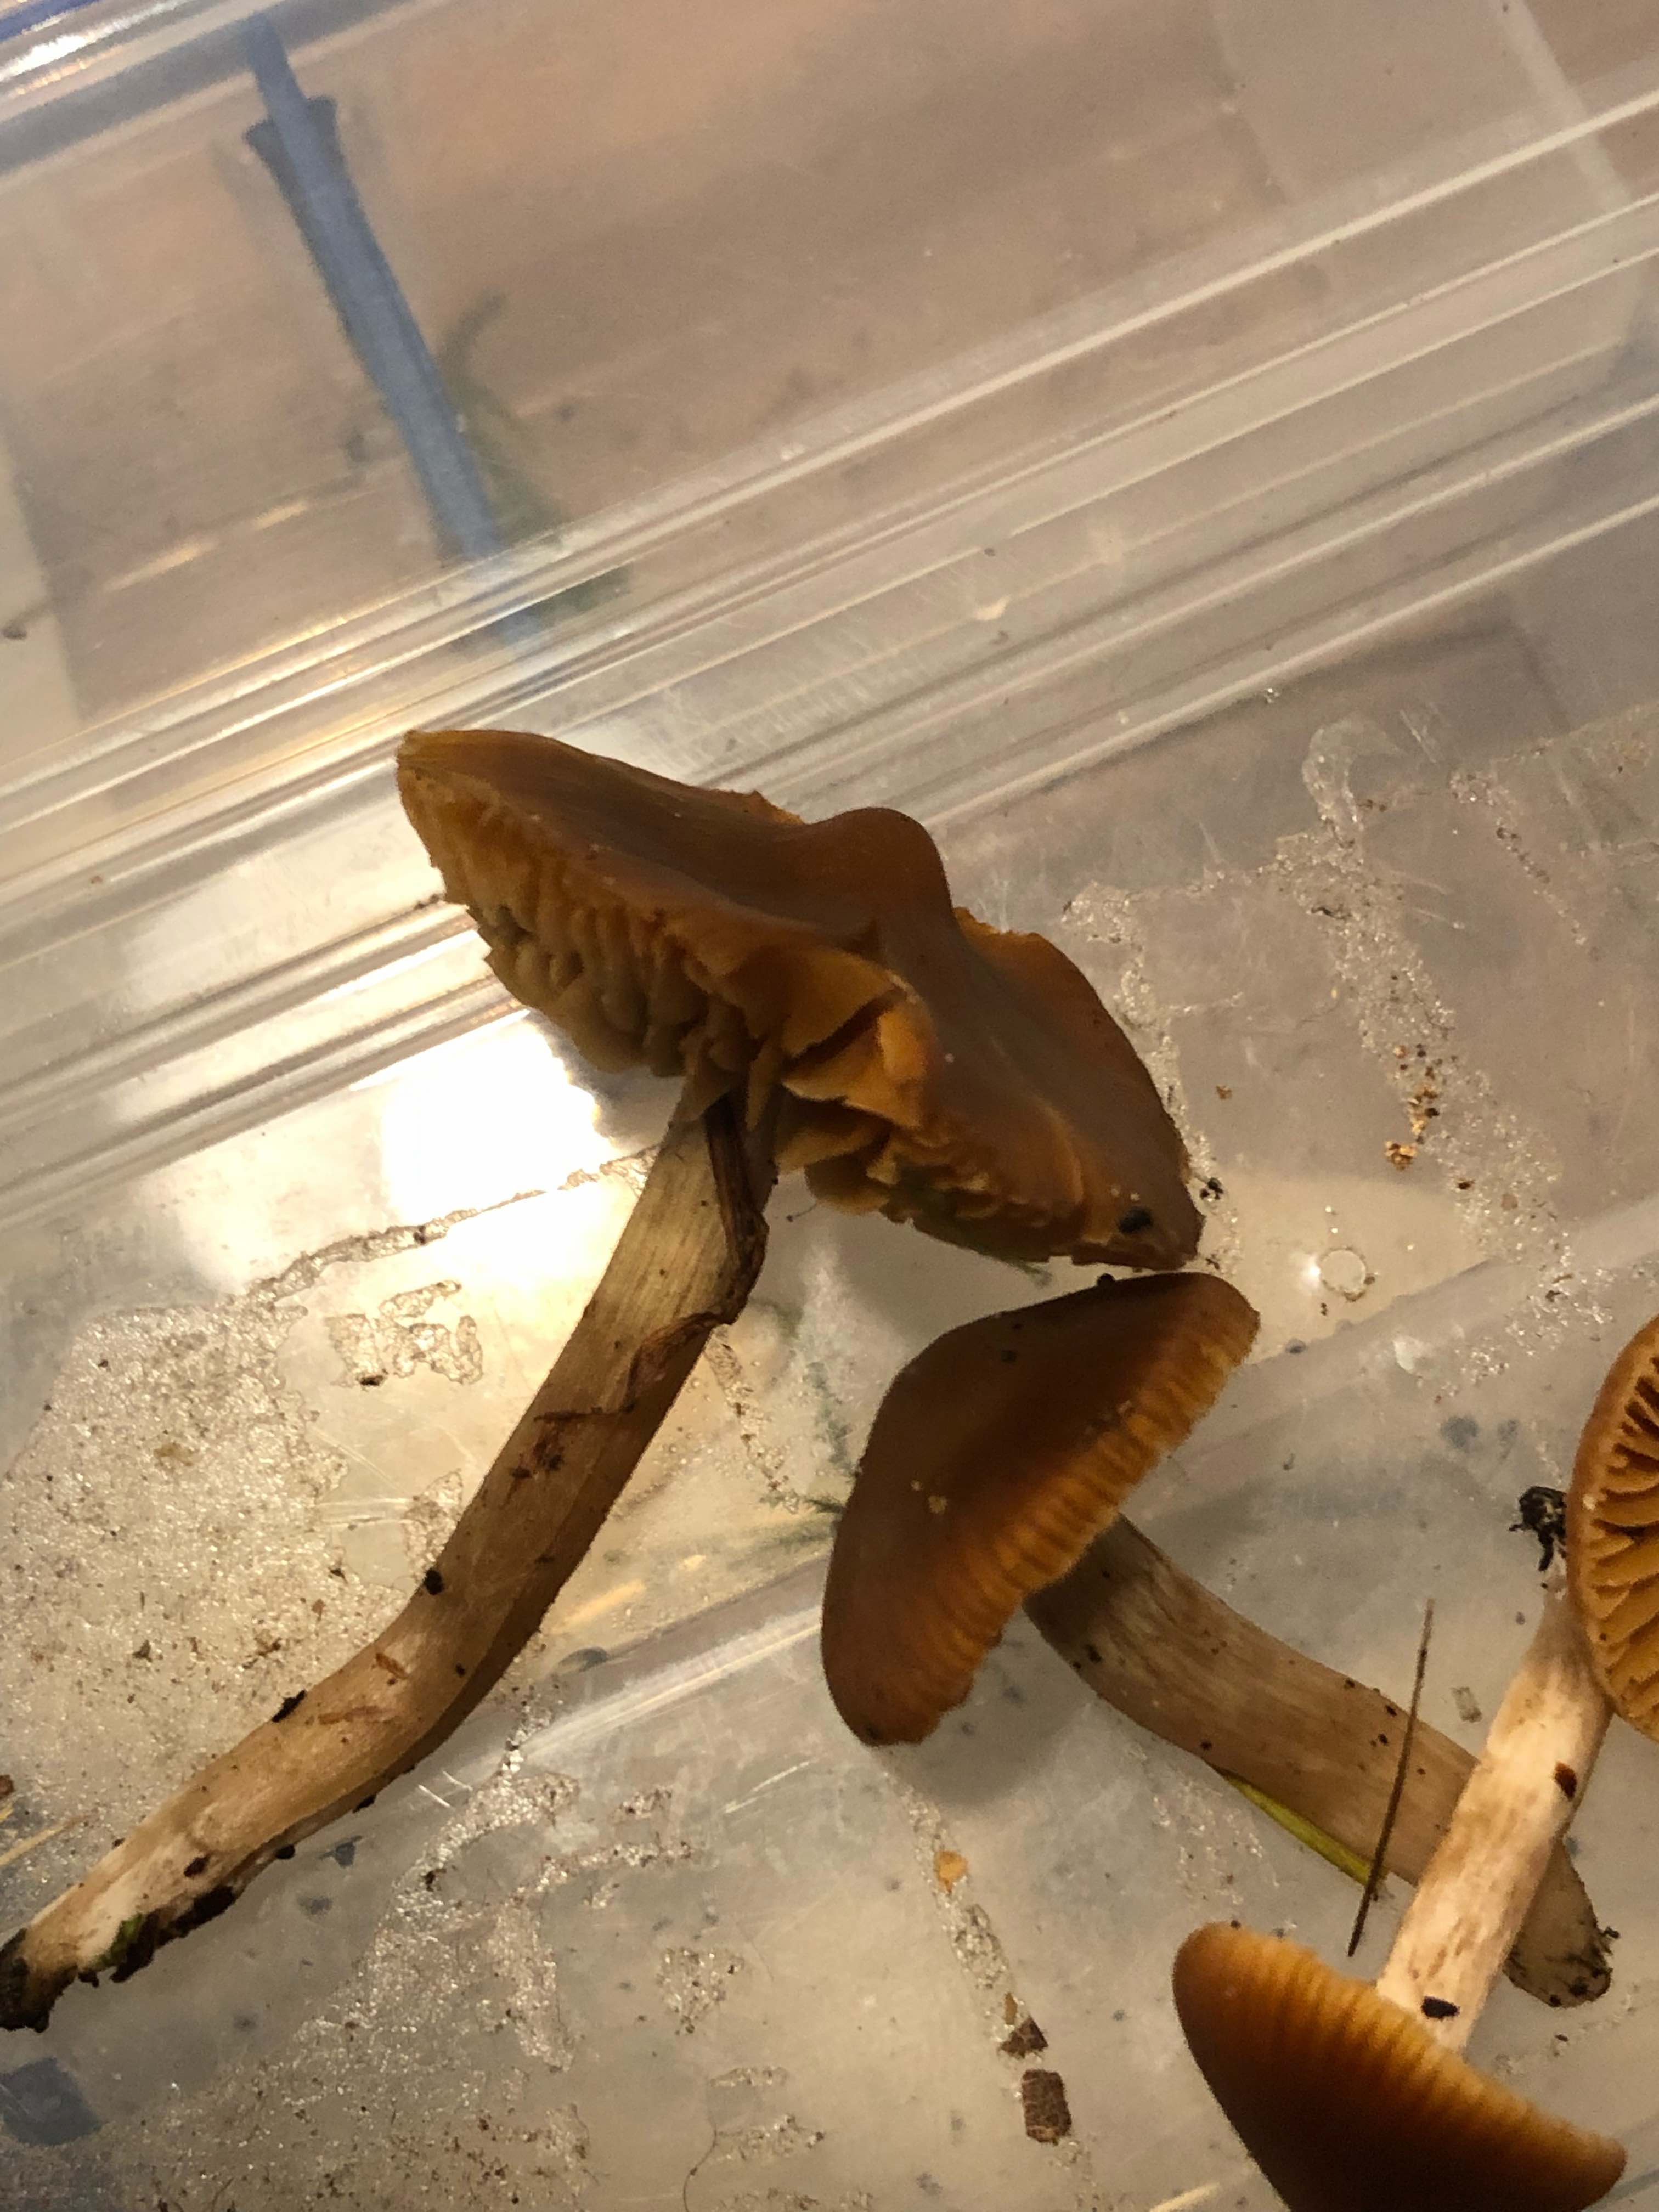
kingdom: Fungi
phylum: Basidiomycota
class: Agaricomycetes
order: Agaricales
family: Cortinariaceae
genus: Cortinarius
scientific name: Cortinarius
